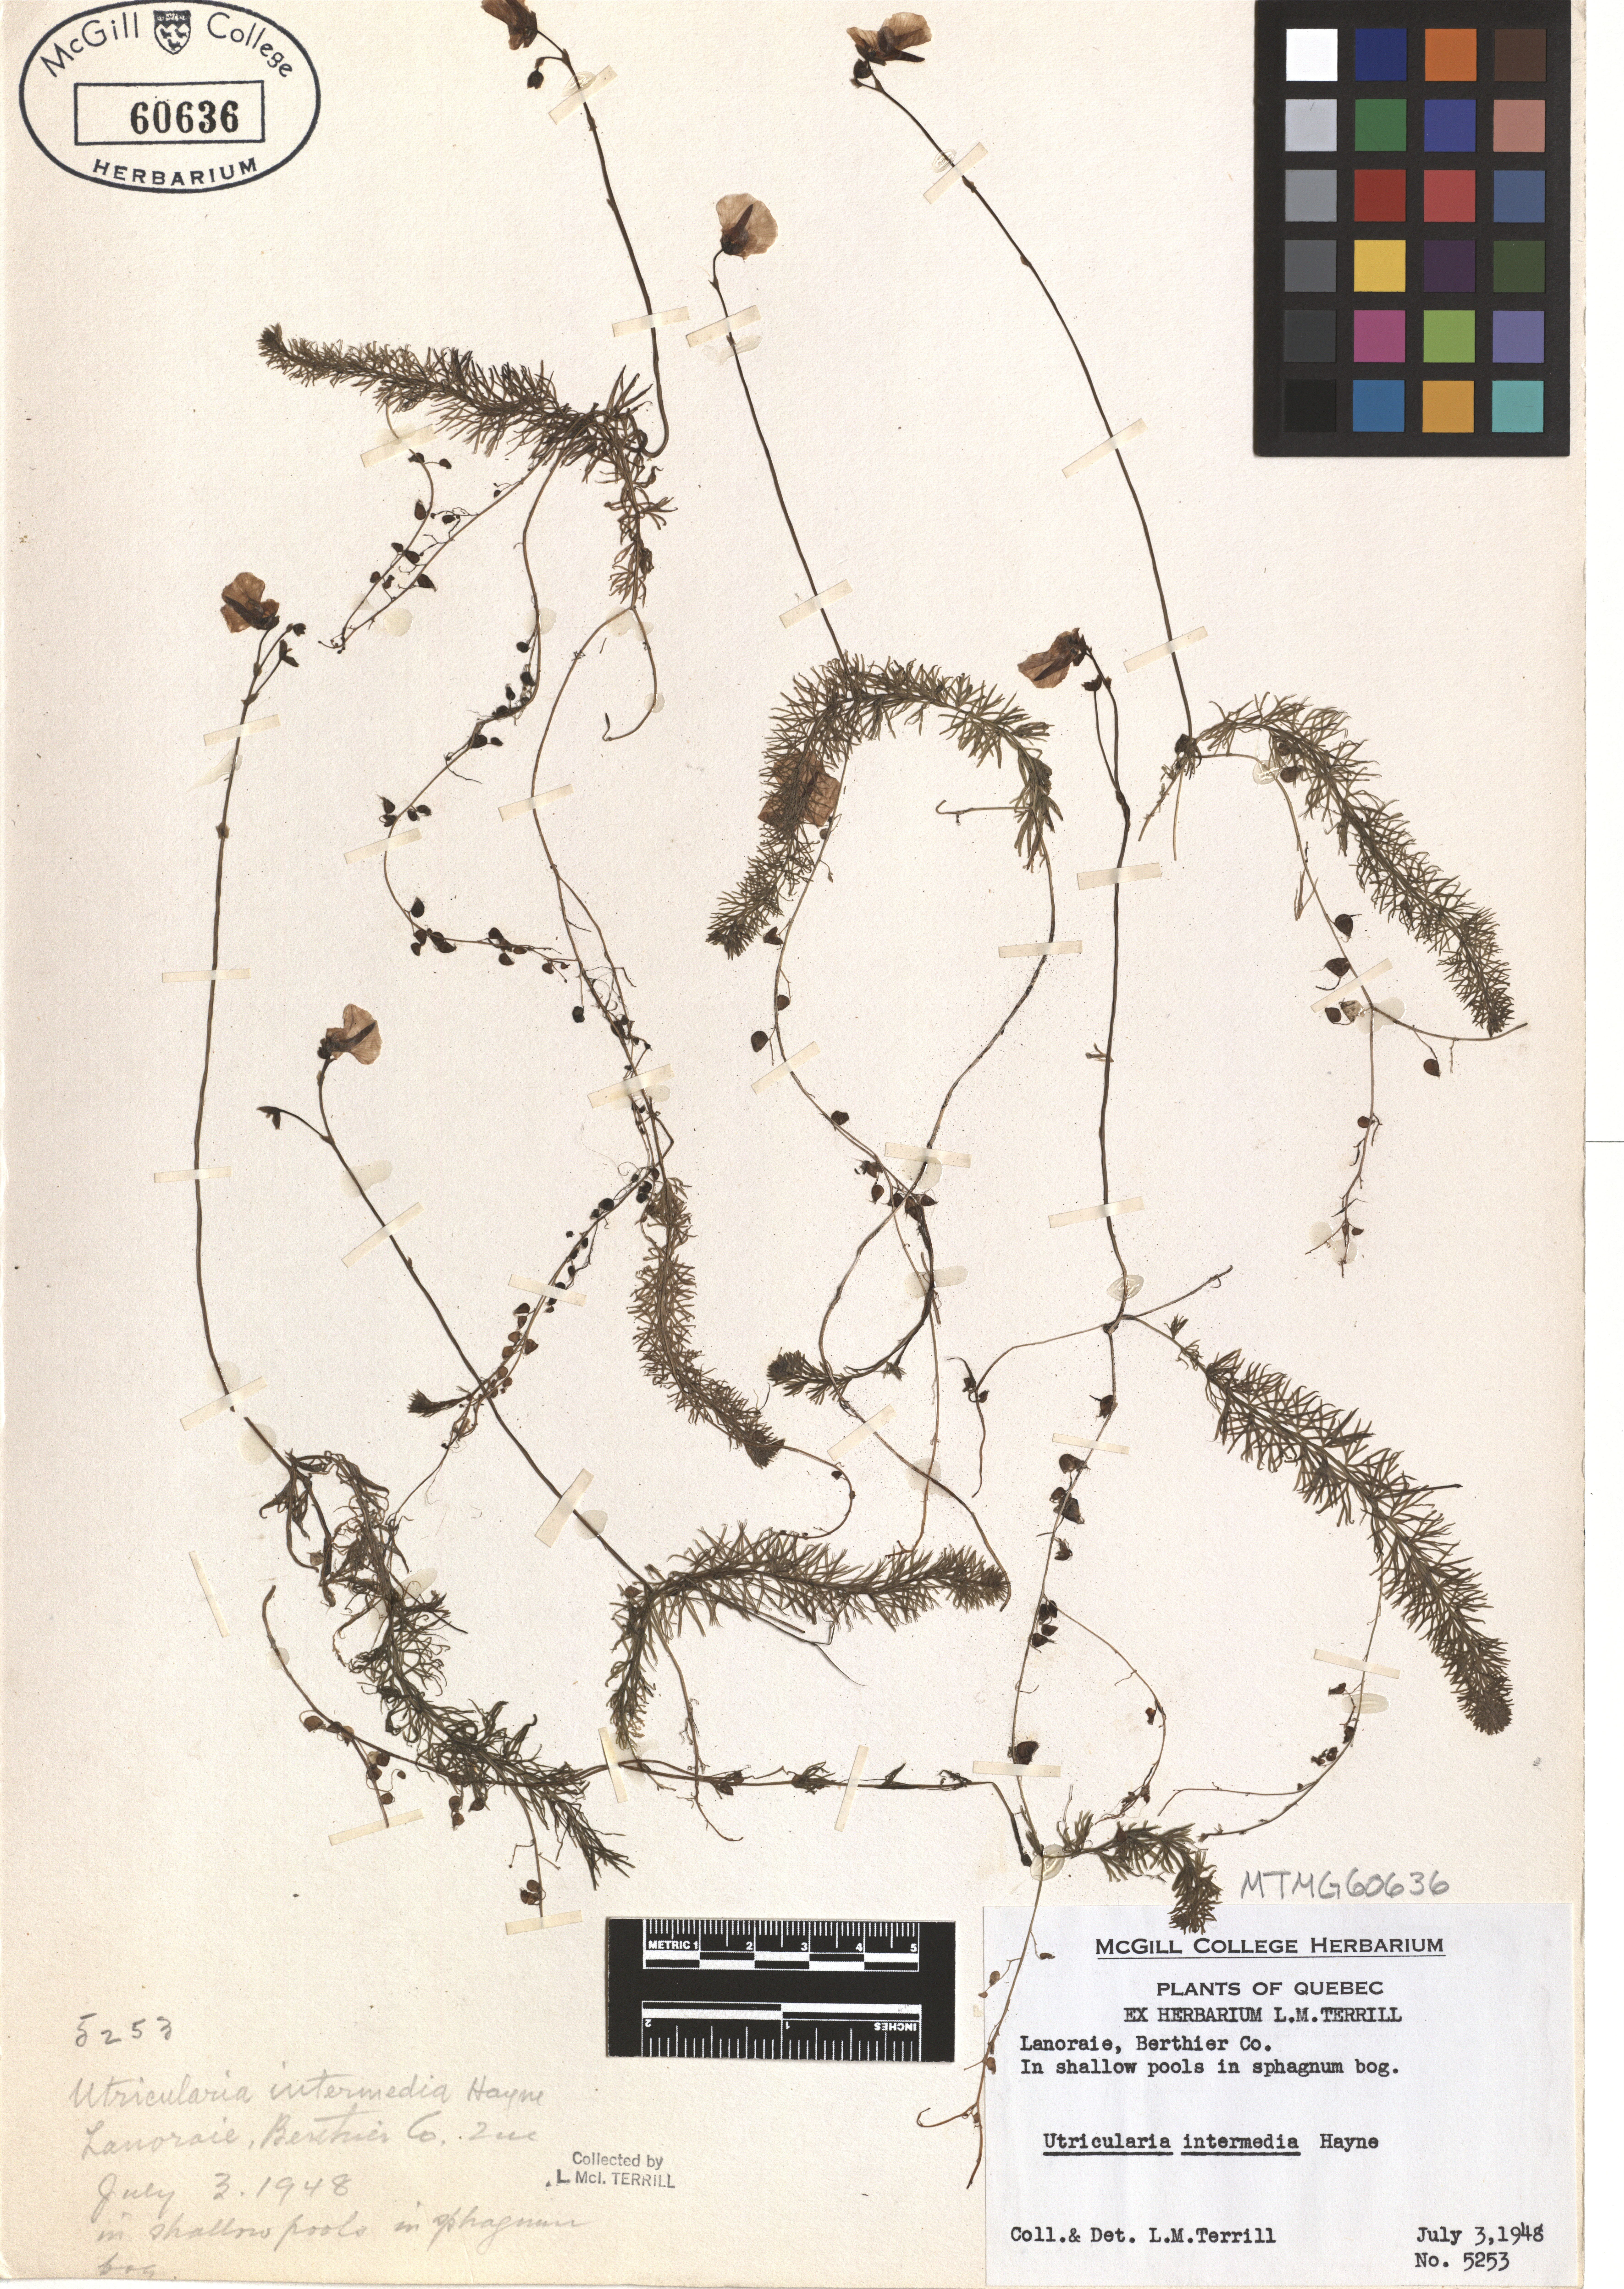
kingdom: Plantae
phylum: Tracheophyta
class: Magnoliopsida
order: Lamiales
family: Lentibulariaceae
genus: Utricularia
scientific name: Utricularia intermedia
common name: Intermediate bladderwort
